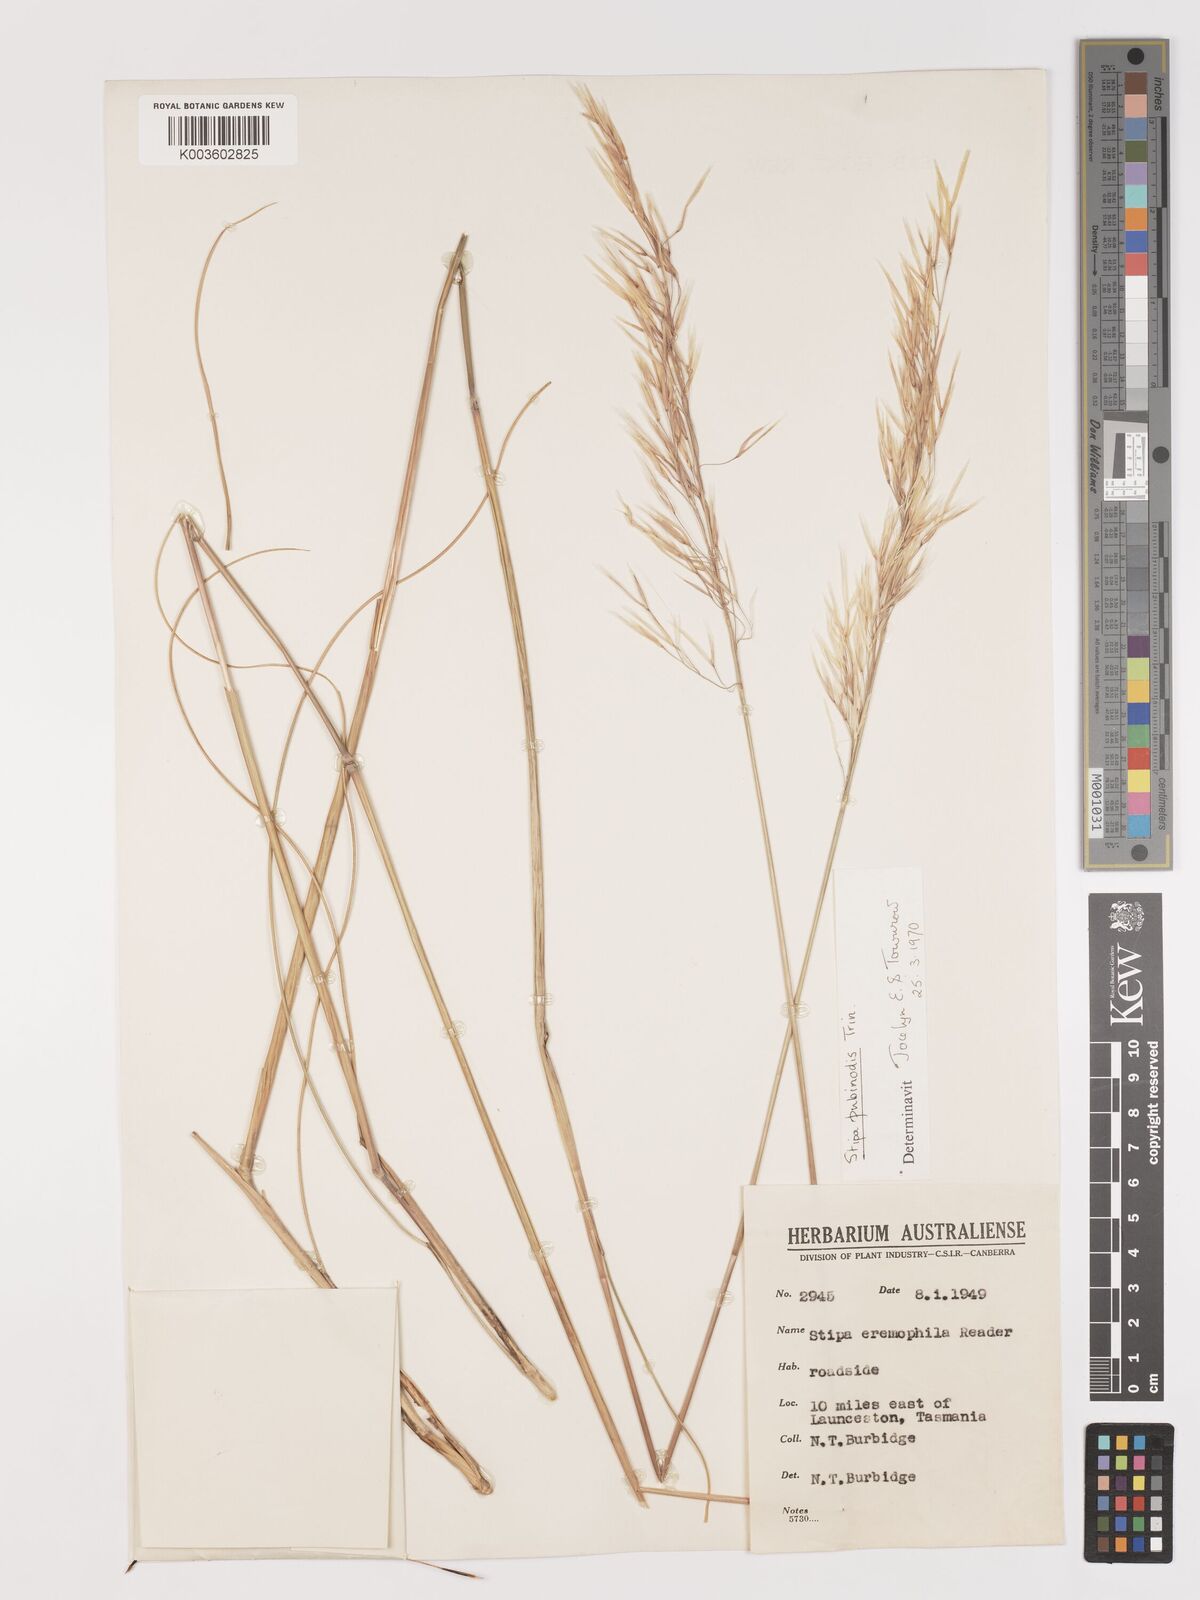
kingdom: Plantae
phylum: Tracheophyta
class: Liliopsida
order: Poales
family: Poaceae
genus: Austrostipa
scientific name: Austrostipa pubinodis
